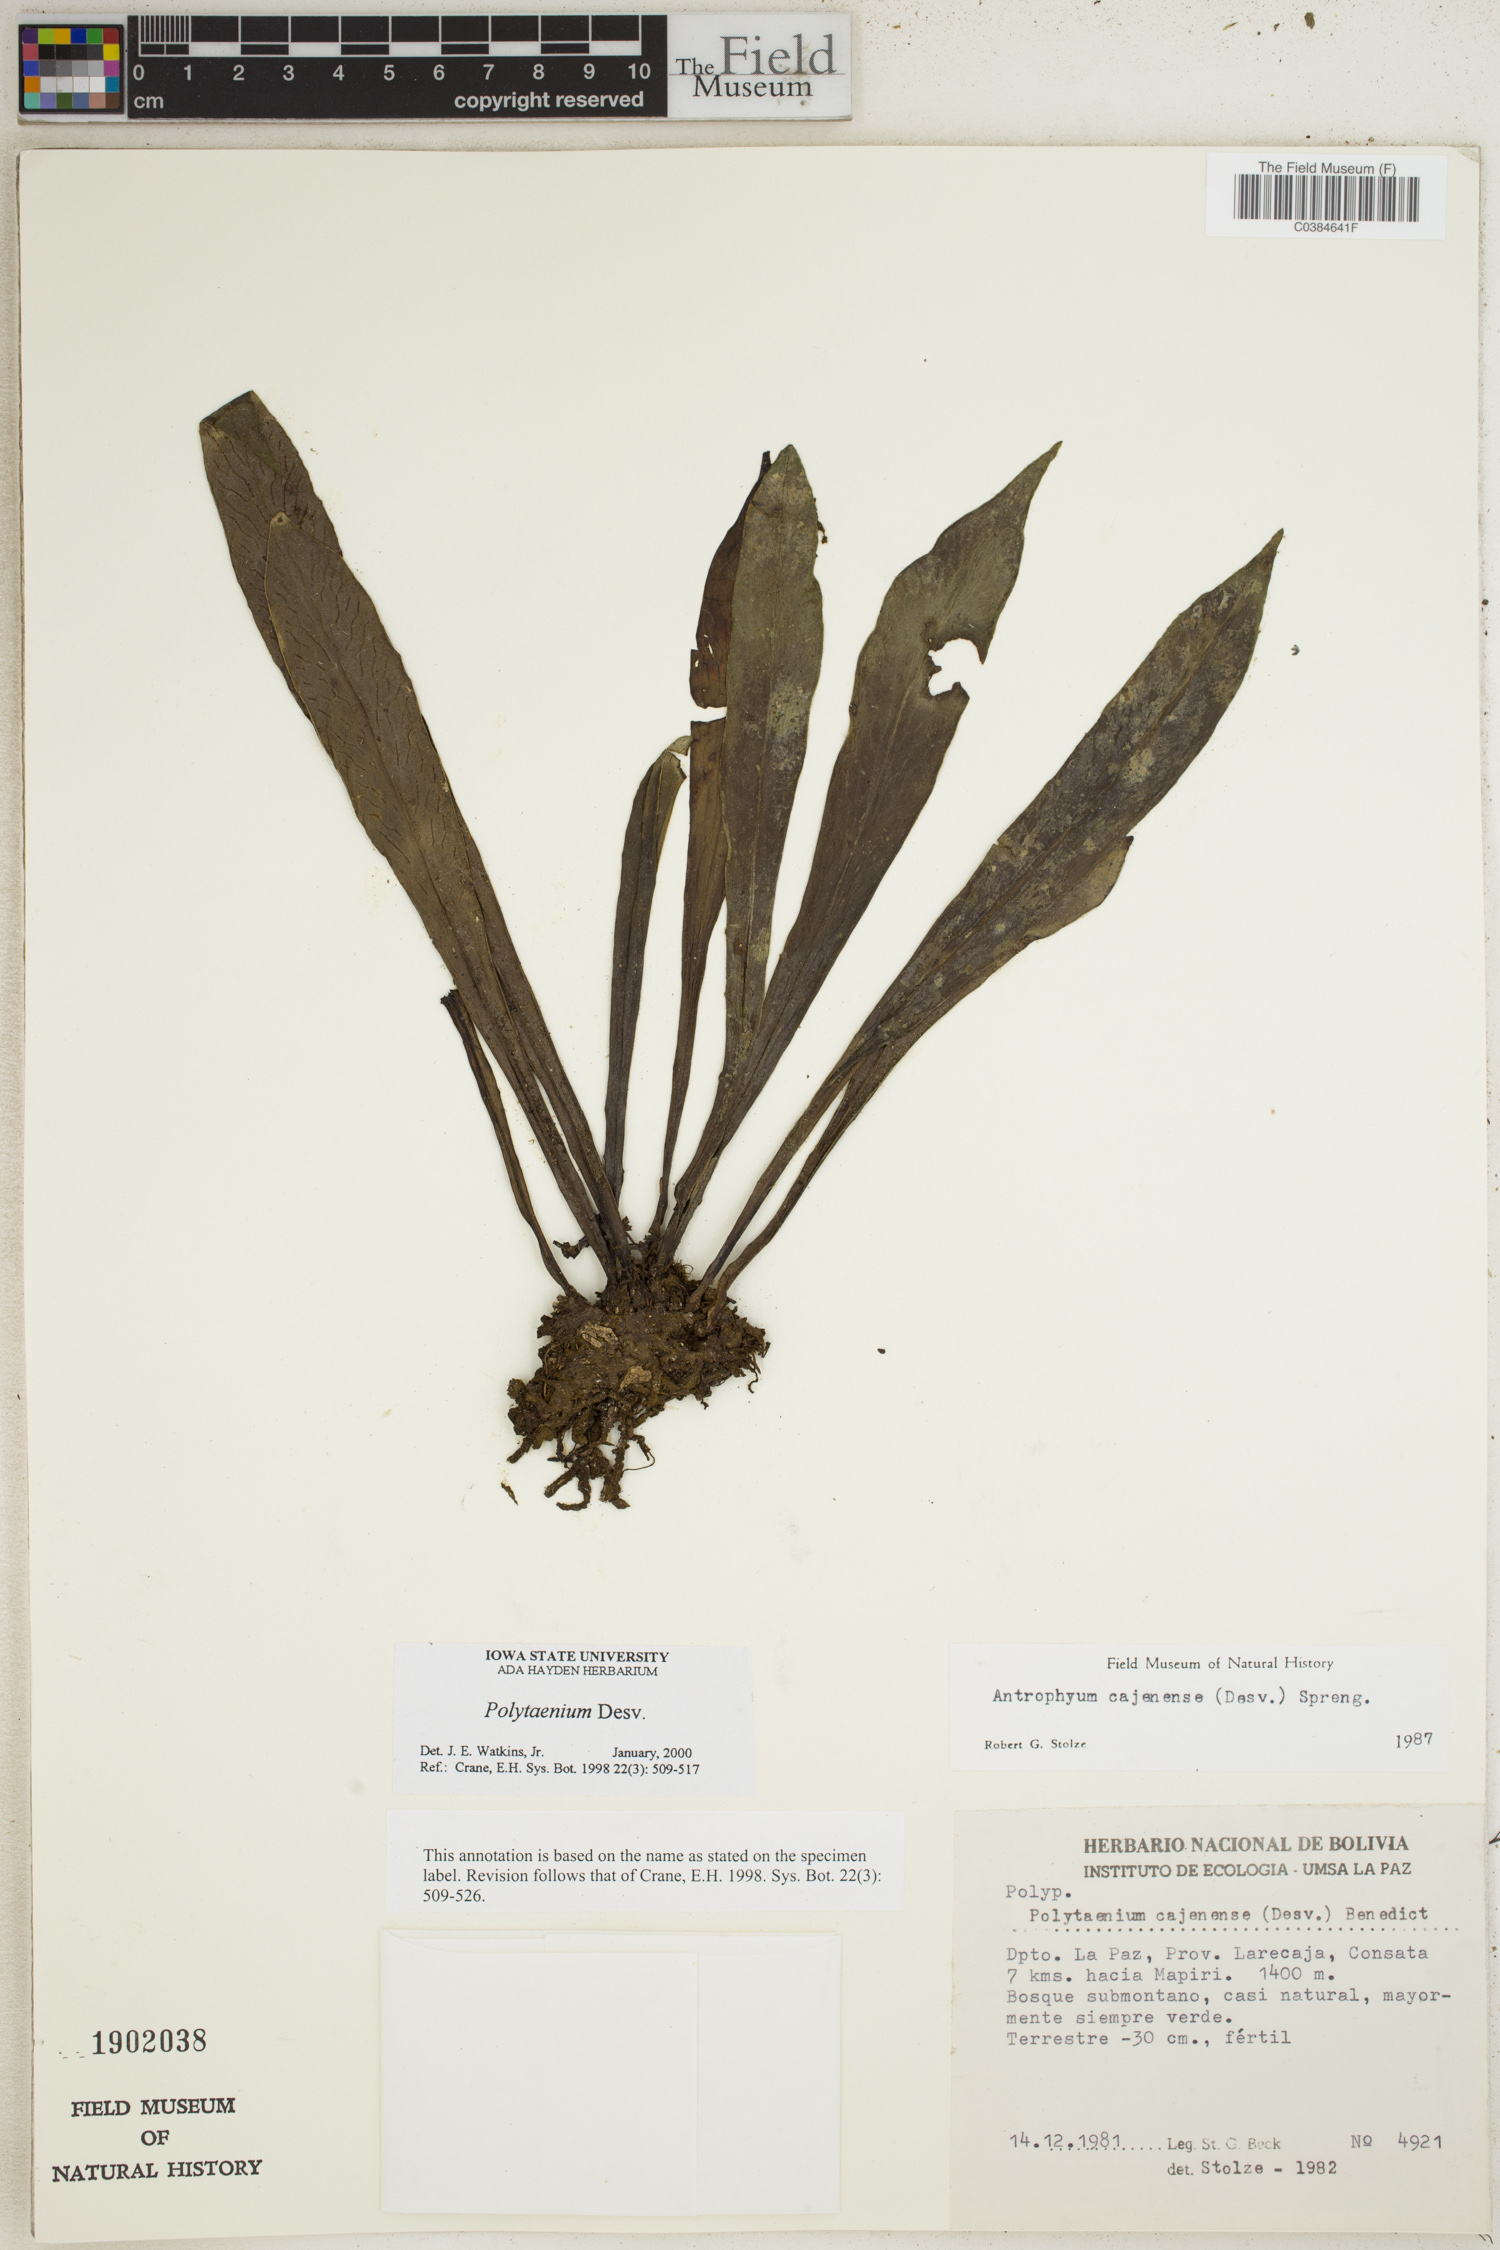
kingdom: Plantae
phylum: Tracheophyta
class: Polypodiopsida
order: Polypodiales
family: Pteridaceae
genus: Polytaenium
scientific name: Polytaenium
